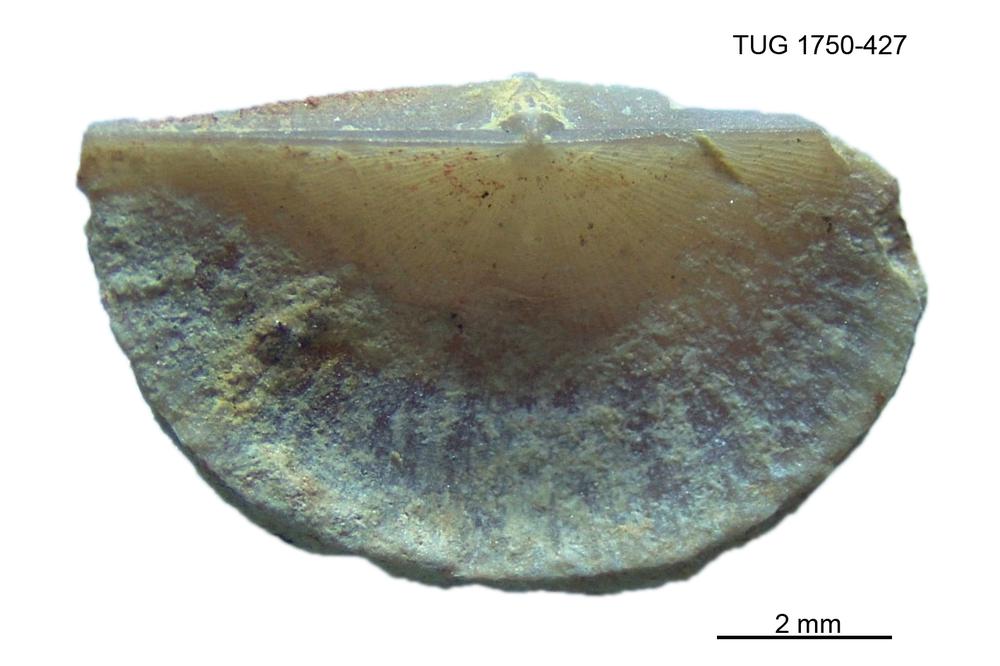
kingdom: Animalia
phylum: Brachiopoda
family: Sowerbyellidae
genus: Sowerbyella
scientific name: Sowerbyella
